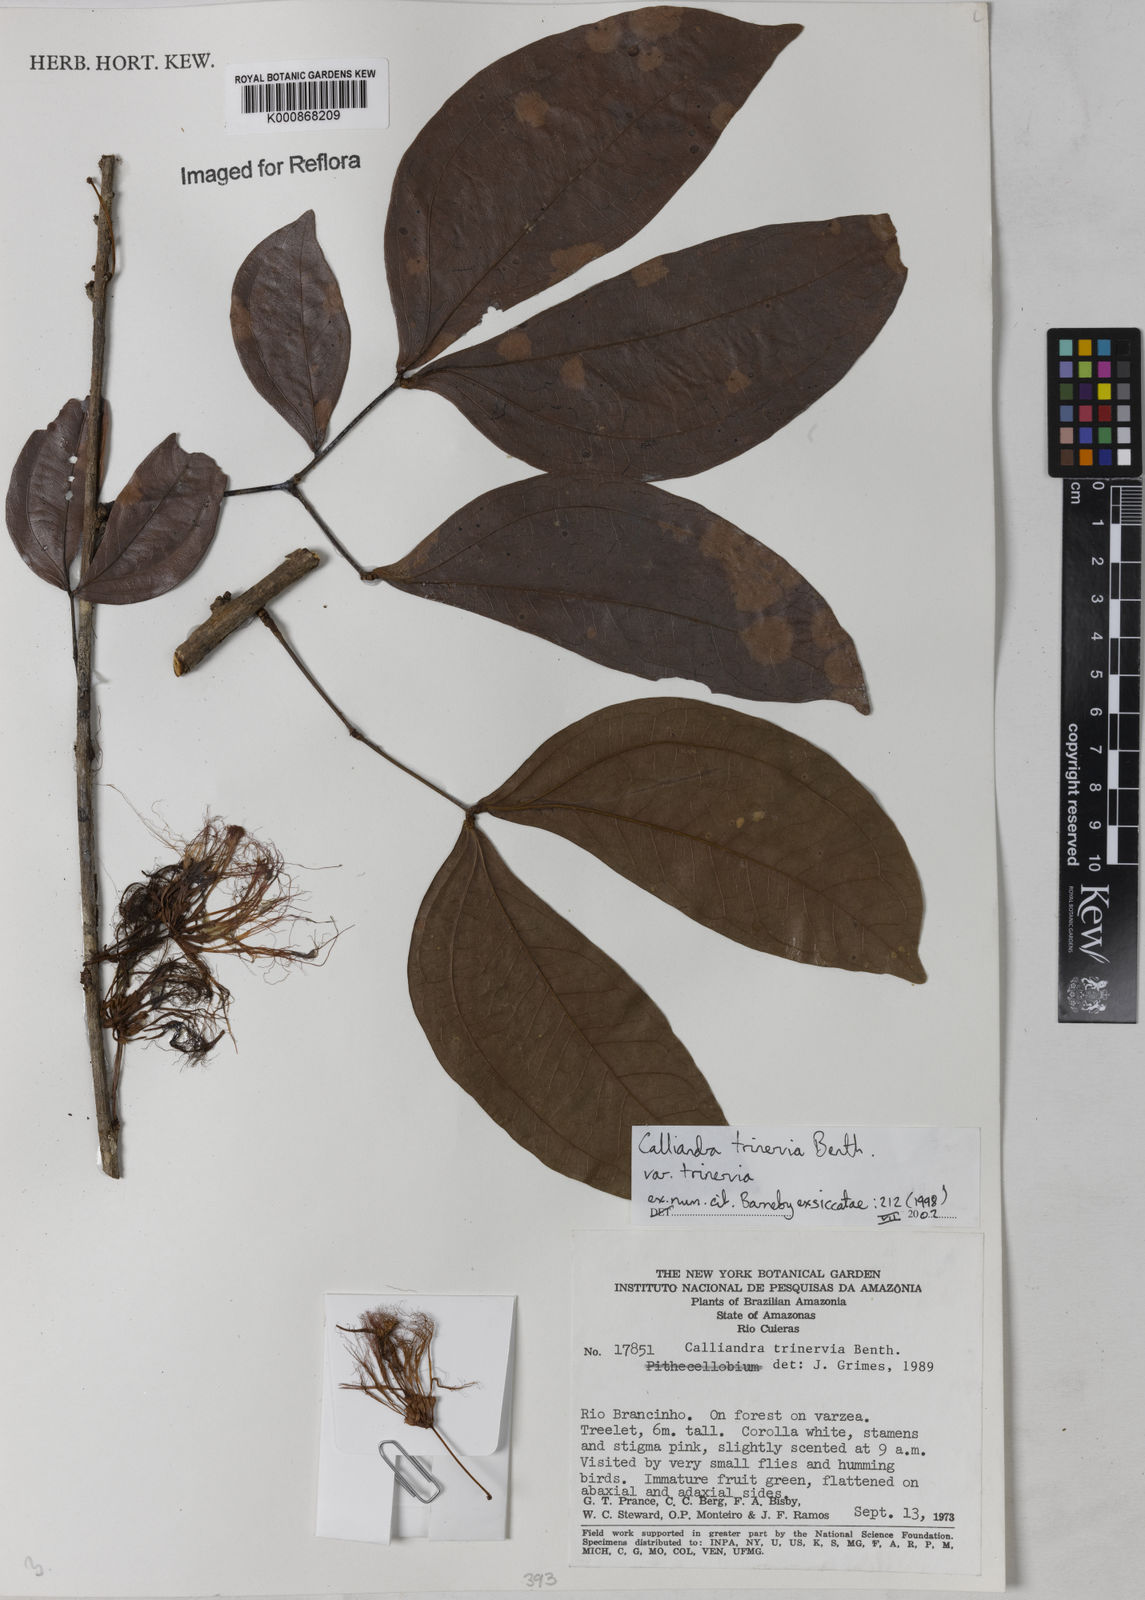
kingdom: Plantae
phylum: Tracheophyta
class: Magnoliopsida
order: Fabales
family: Fabaceae
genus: Calliandra
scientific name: Calliandra trinervia
